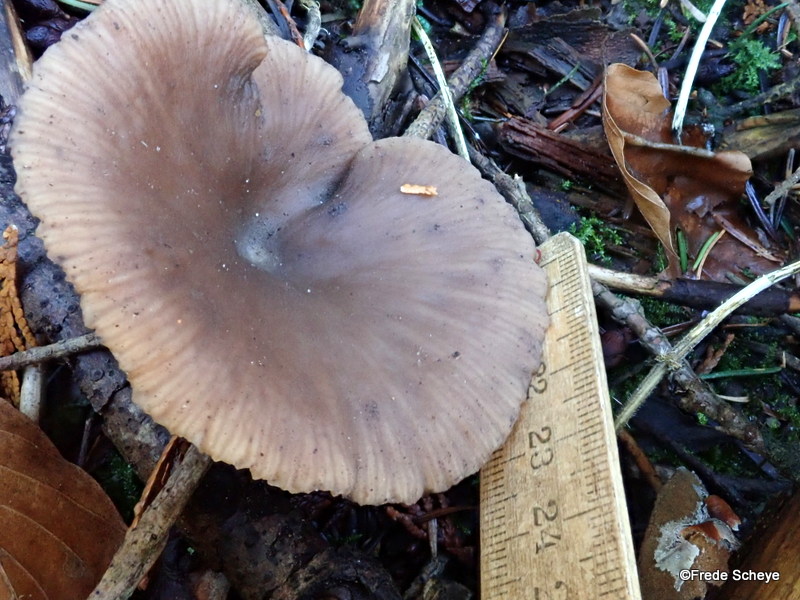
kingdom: Fungi
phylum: Basidiomycota
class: Agaricomycetes
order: Agaricales
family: Pseudoclitocybaceae
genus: Pseudoclitocybe
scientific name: Pseudoclitocybe cyathiformis
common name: almindelig bægertragthat
